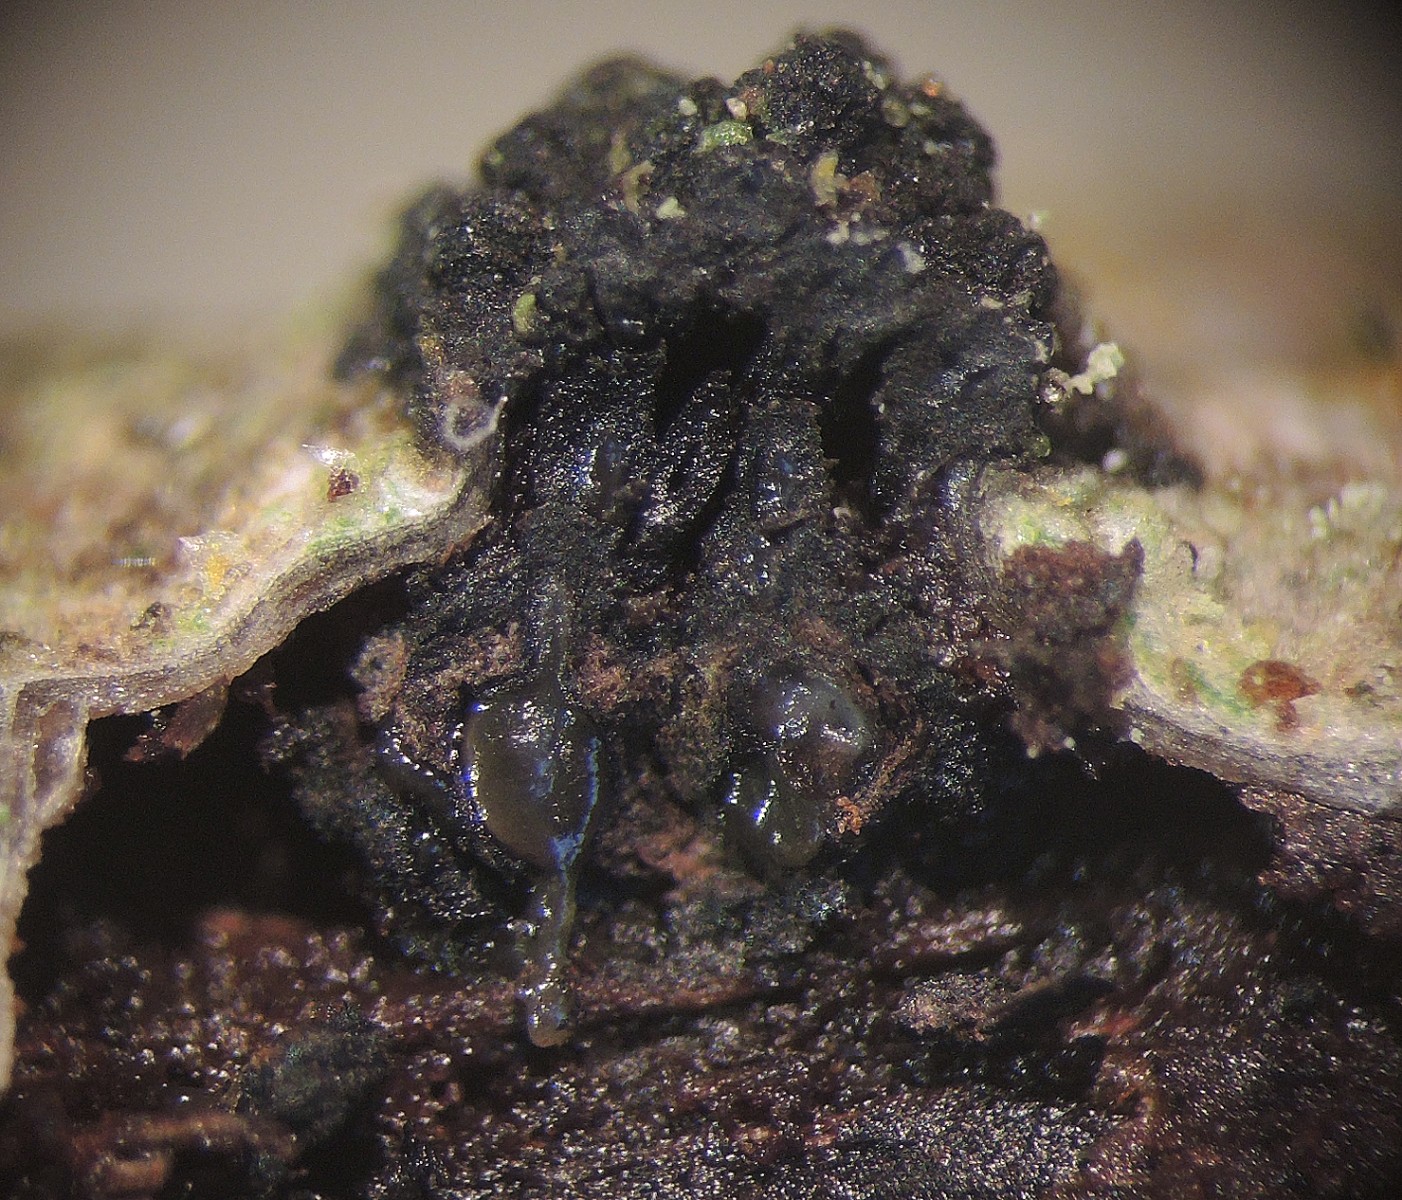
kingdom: Fungi
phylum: Ascomycota
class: Sordariomycetes
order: Xylariales
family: Diatrypaceae
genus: Eutypella
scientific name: Eutypella sorbi
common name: rønne-kulskorpe
